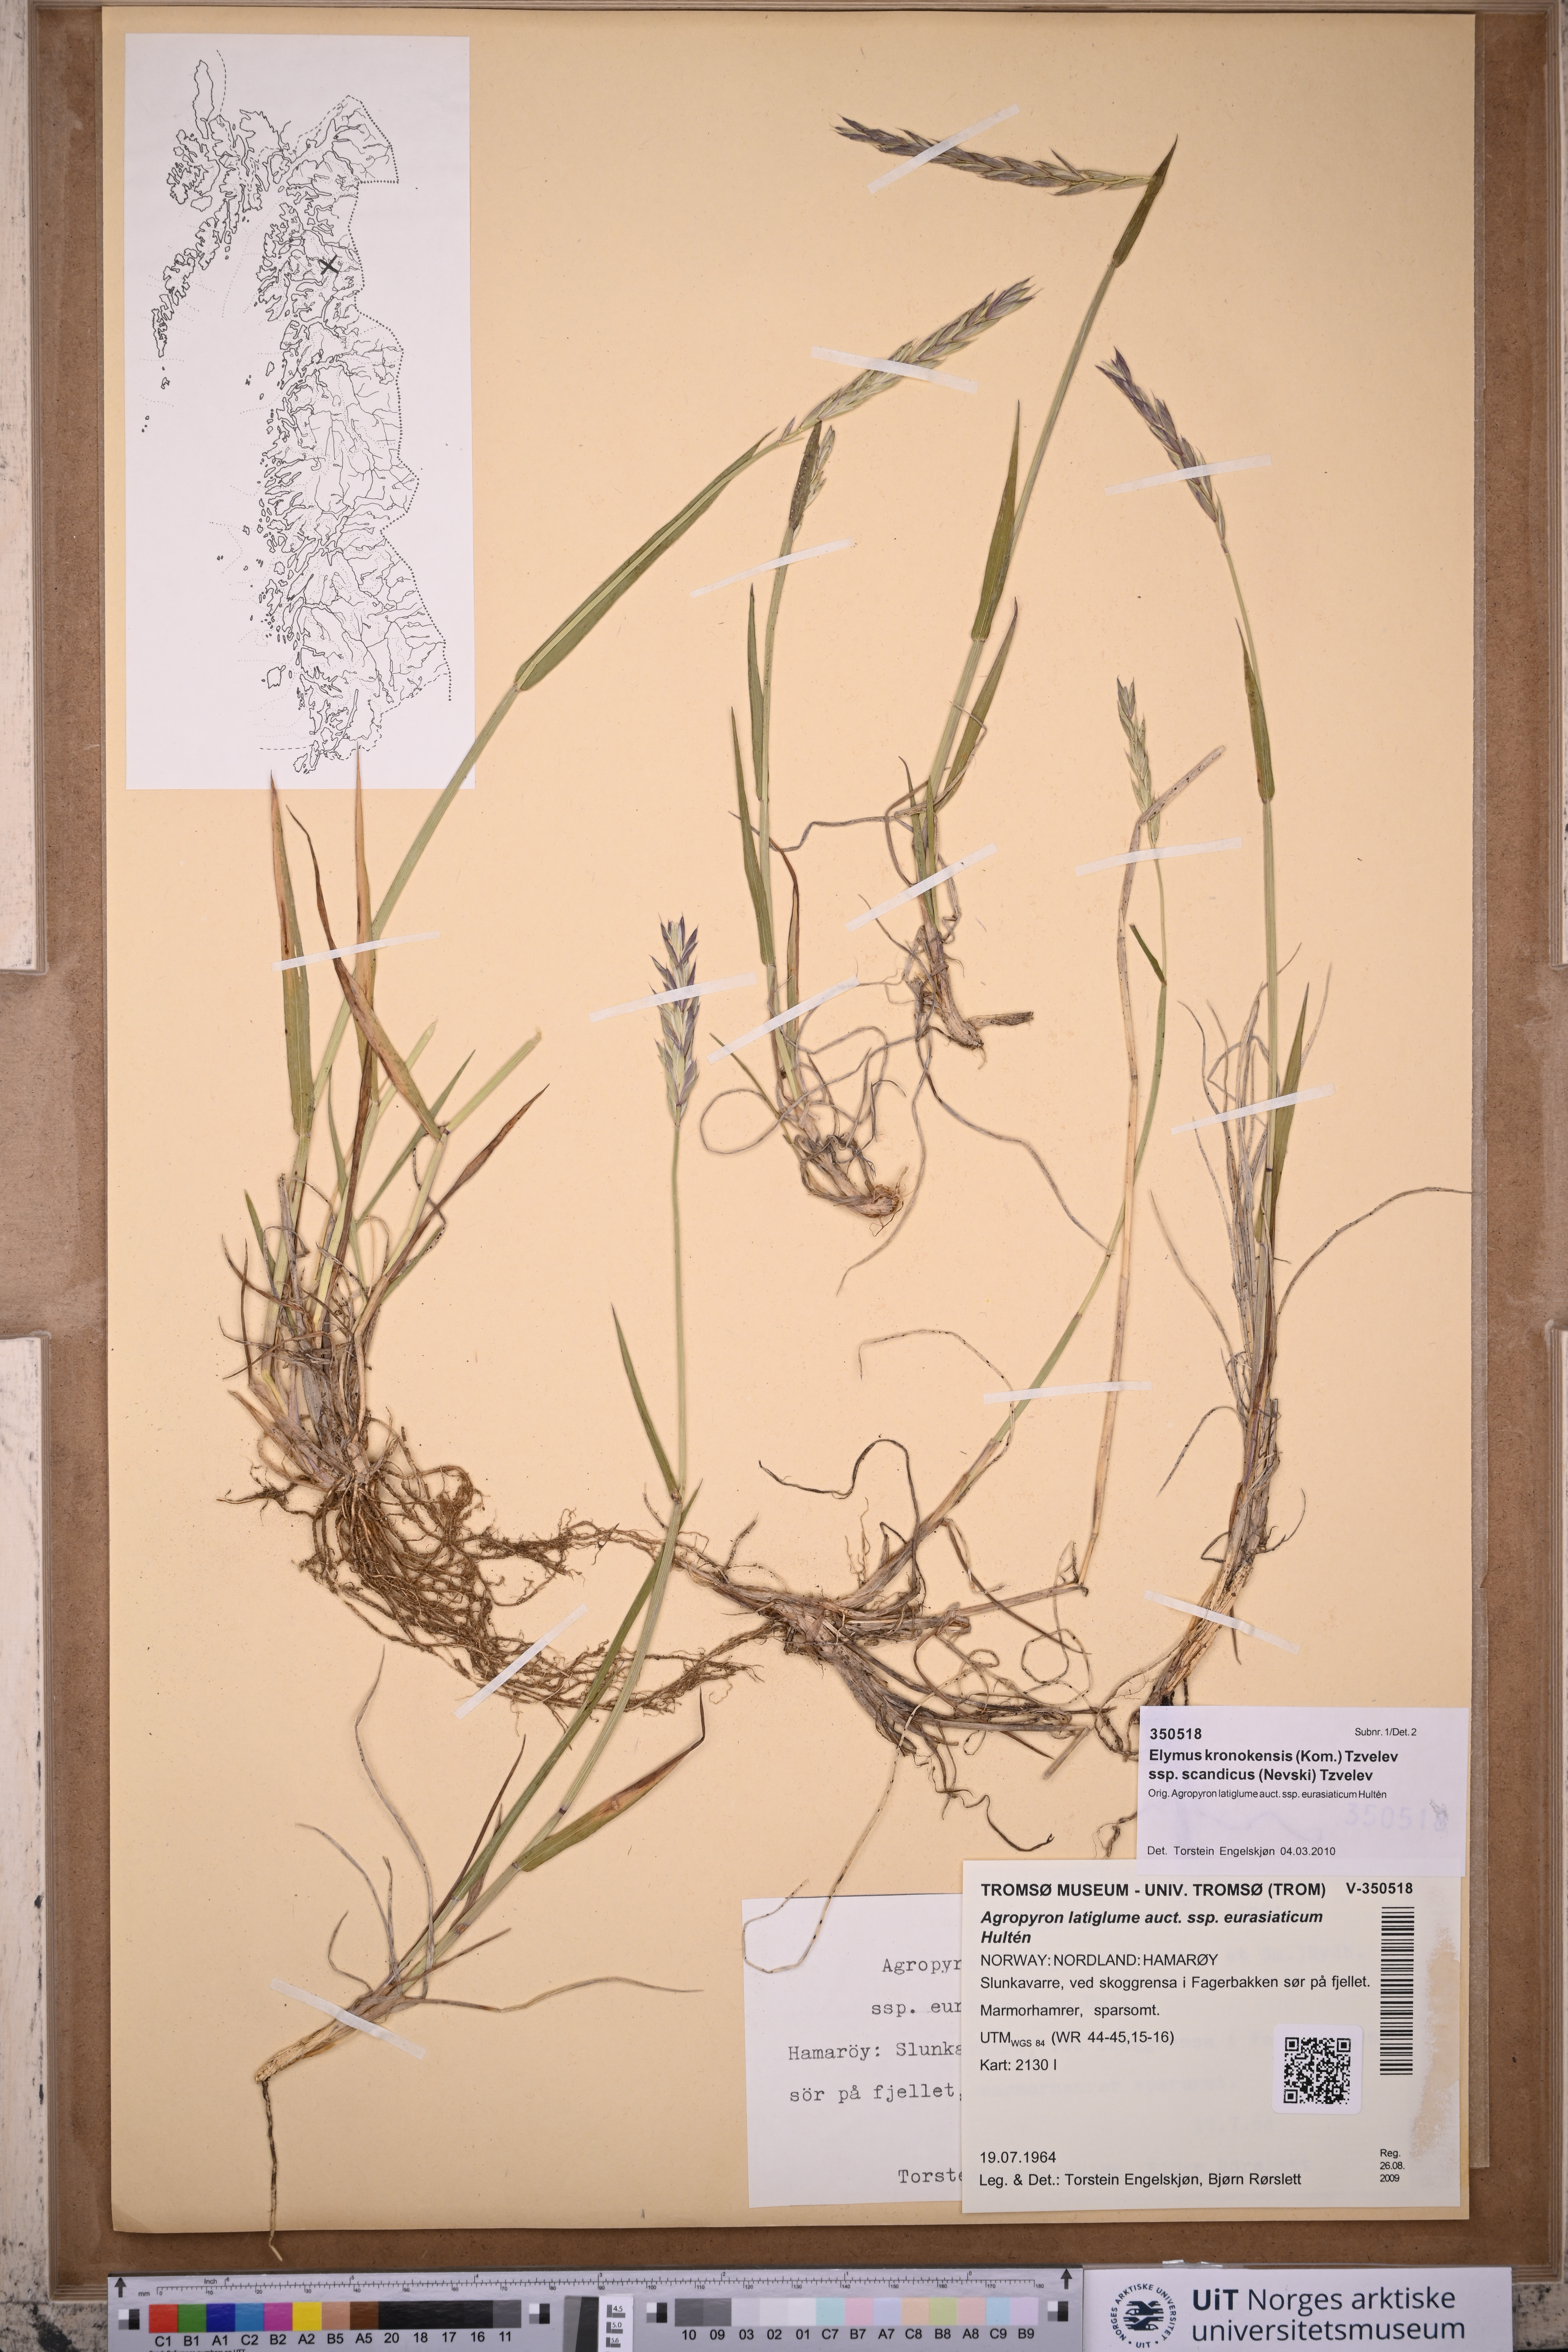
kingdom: Plantae
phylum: Tracheophyta
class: Liliopsida
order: Poales
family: Poaceae
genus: Elymus
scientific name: Elymus macrourus
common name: Northern wheatgrass
